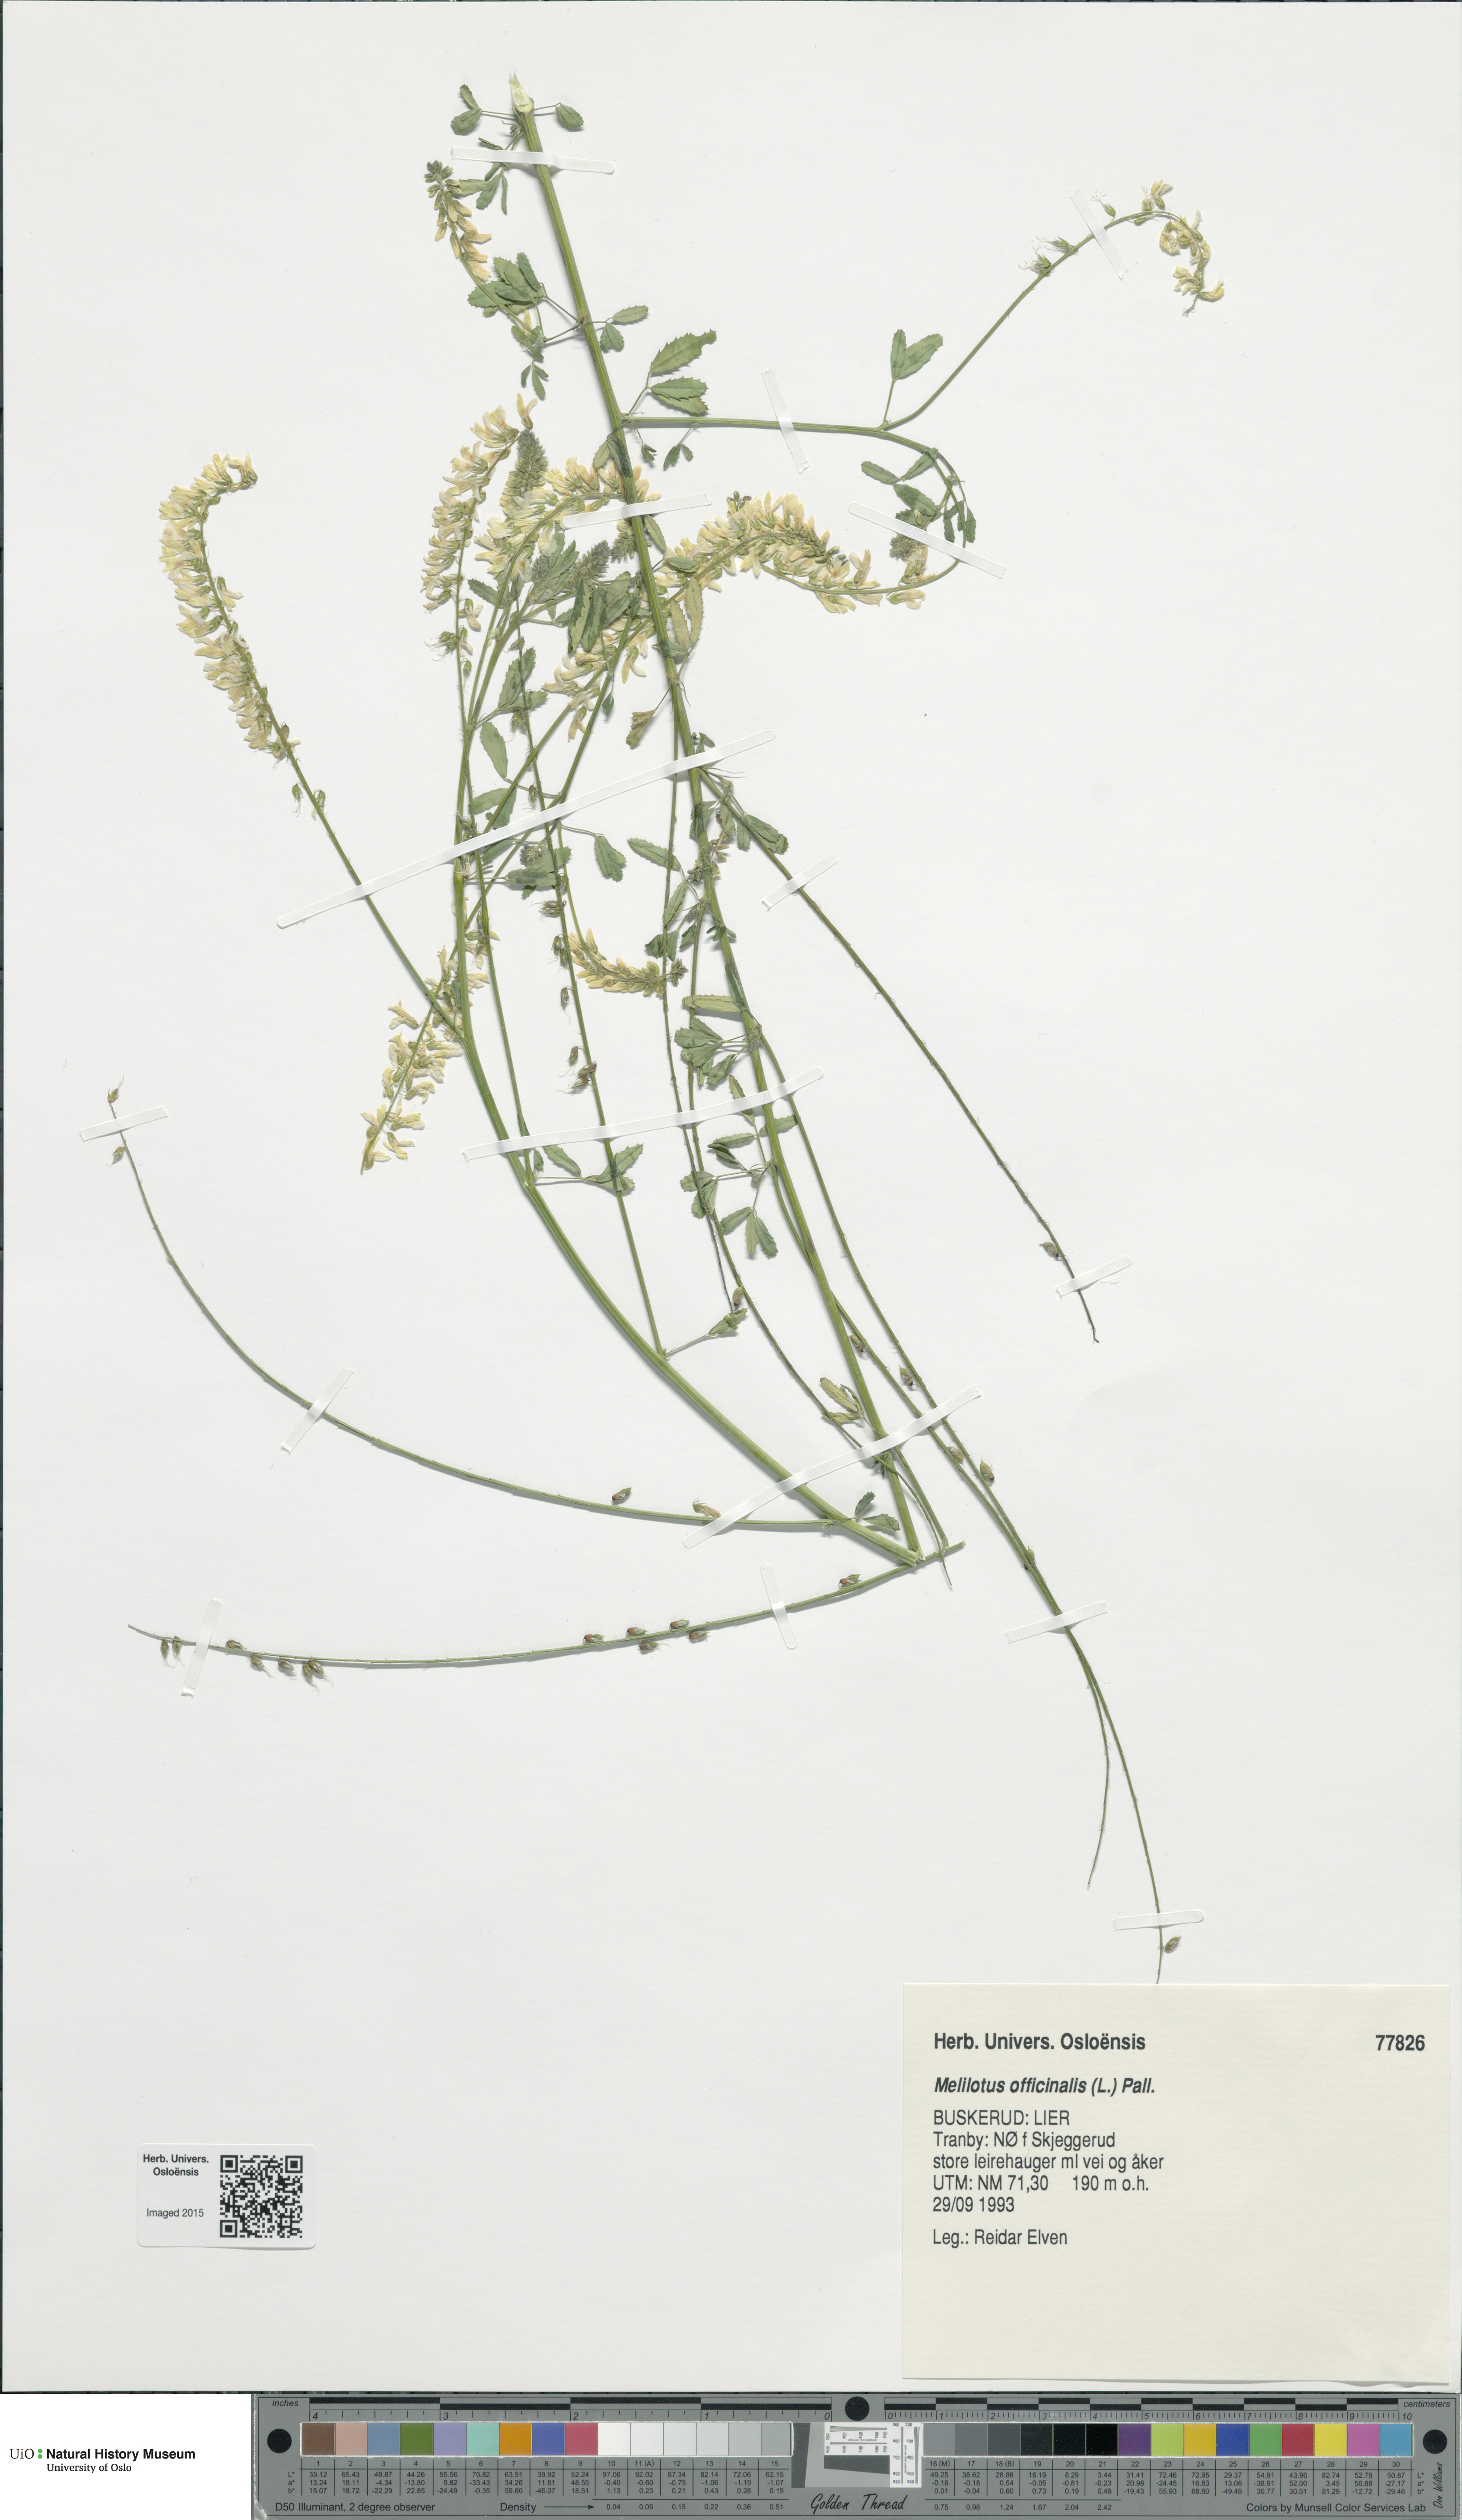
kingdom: Plantae
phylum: Tracheophyta
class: Magnoliopsida
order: Fabales
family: Fabaceae
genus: Melilotus
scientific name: Melilotus officinalis
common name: Sweetclover
